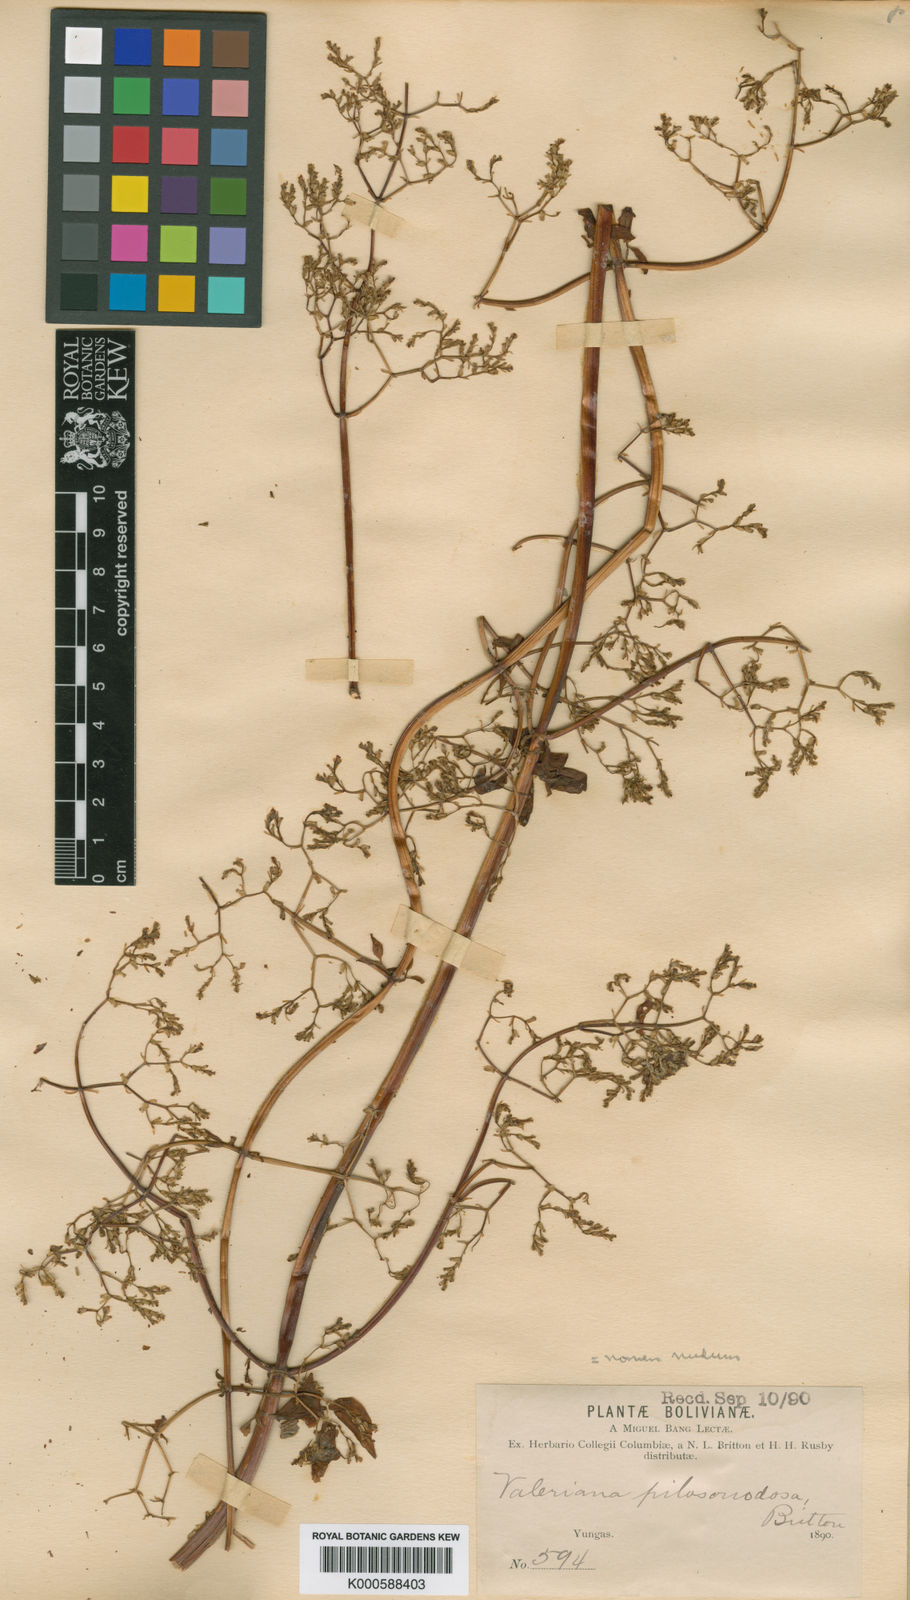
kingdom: Plantae
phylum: Tracheophyta
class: Magnoliopsida
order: Dipsacales
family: Caprifoliaceae
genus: Valeriana
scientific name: Valeriana
